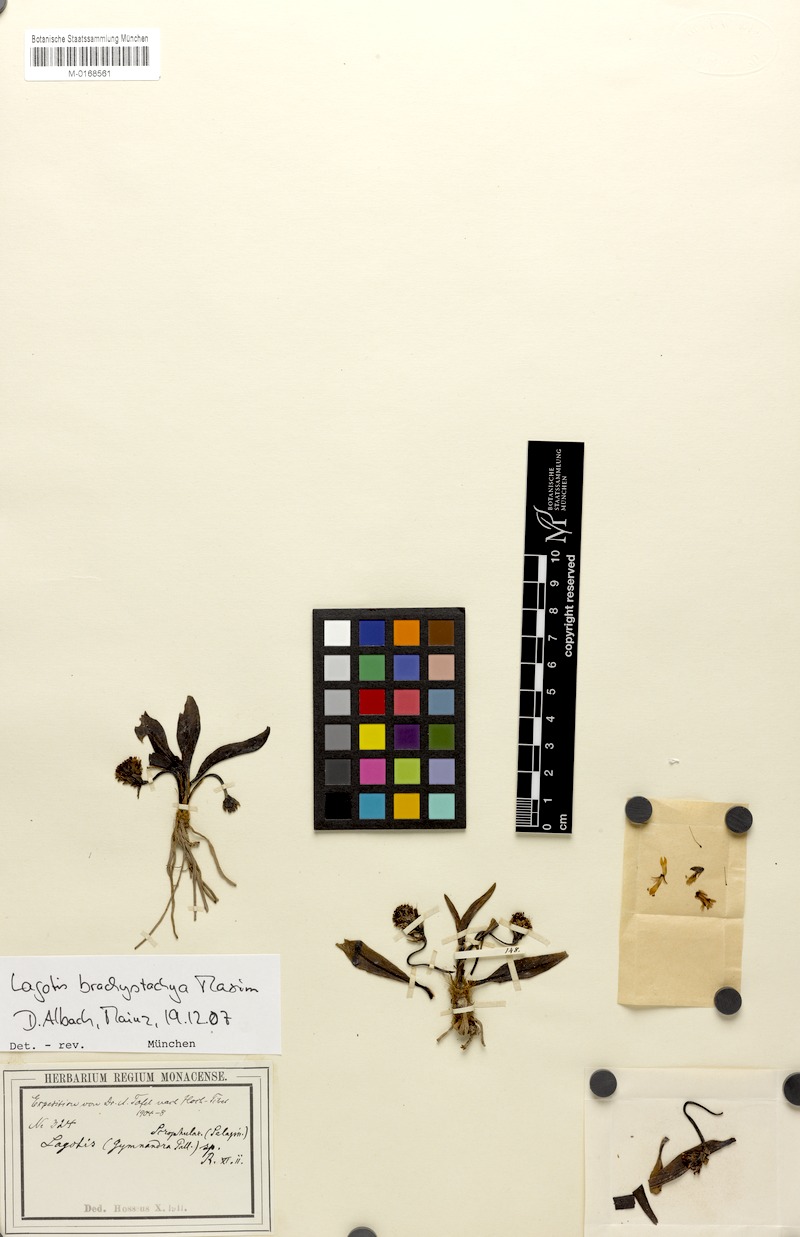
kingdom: Plantae
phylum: Tracheophyta
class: Magnoliopsida
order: Lamiales
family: Plantaginaceae
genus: Lagotis
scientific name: Lagotis brachystachya
